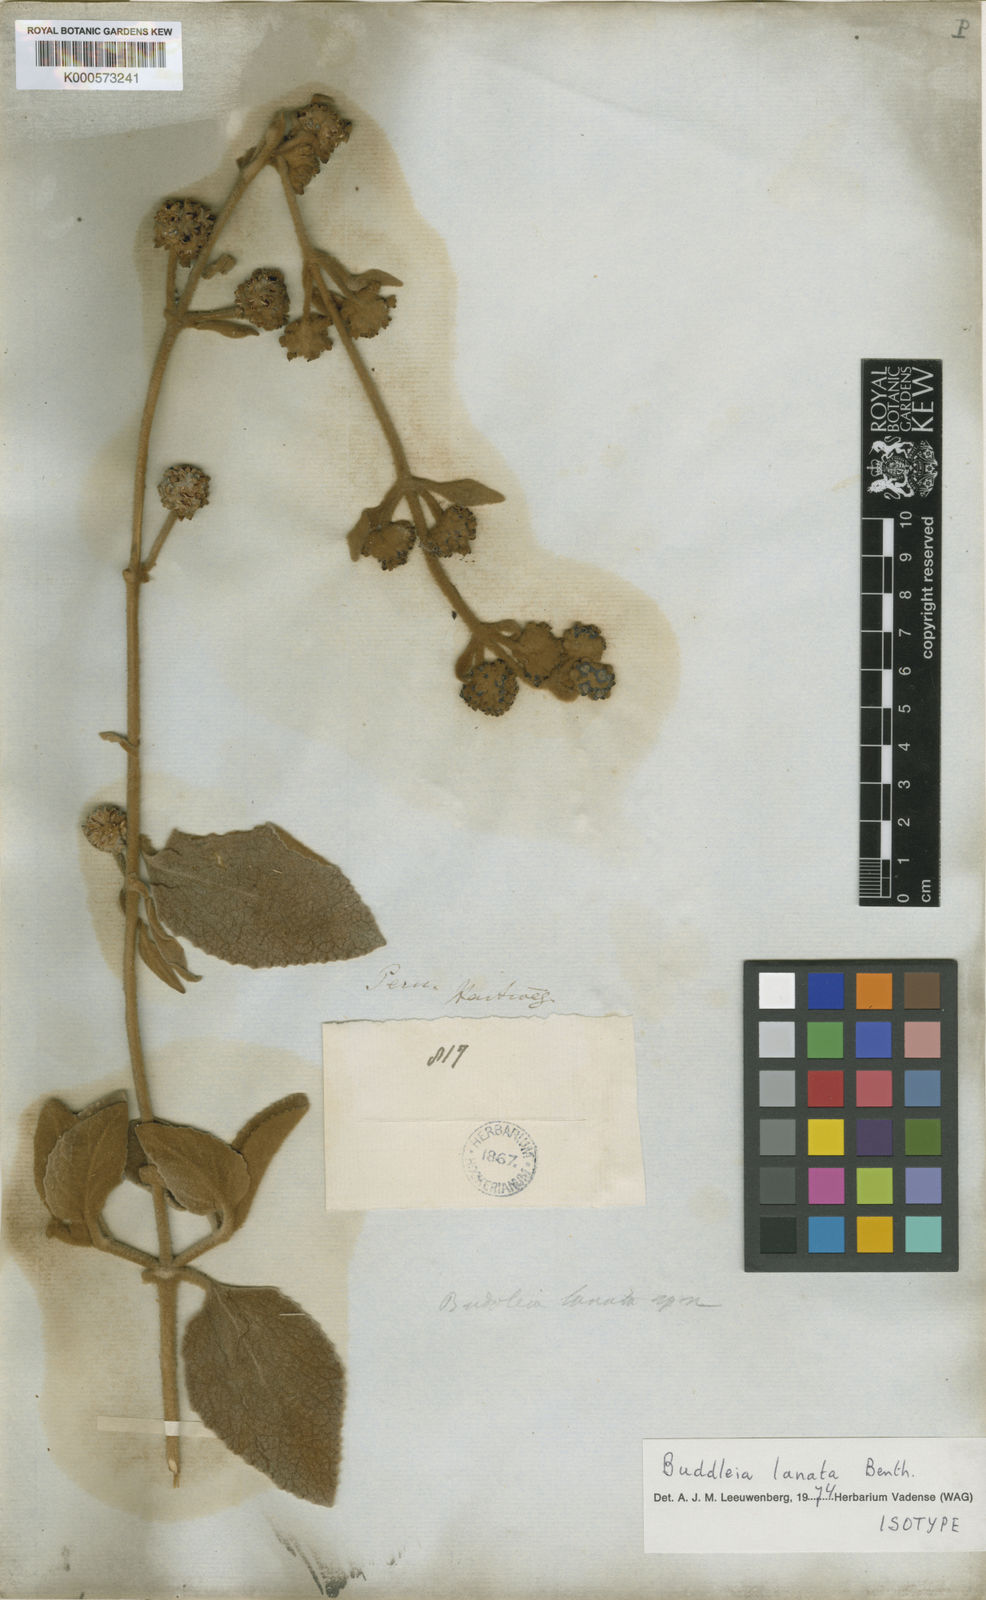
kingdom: Plantae
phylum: Tracheophyta
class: Magnoliopsida
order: Lamiales
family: Scrophulariaceae
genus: Buddleja
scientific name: Buddleja lanata
